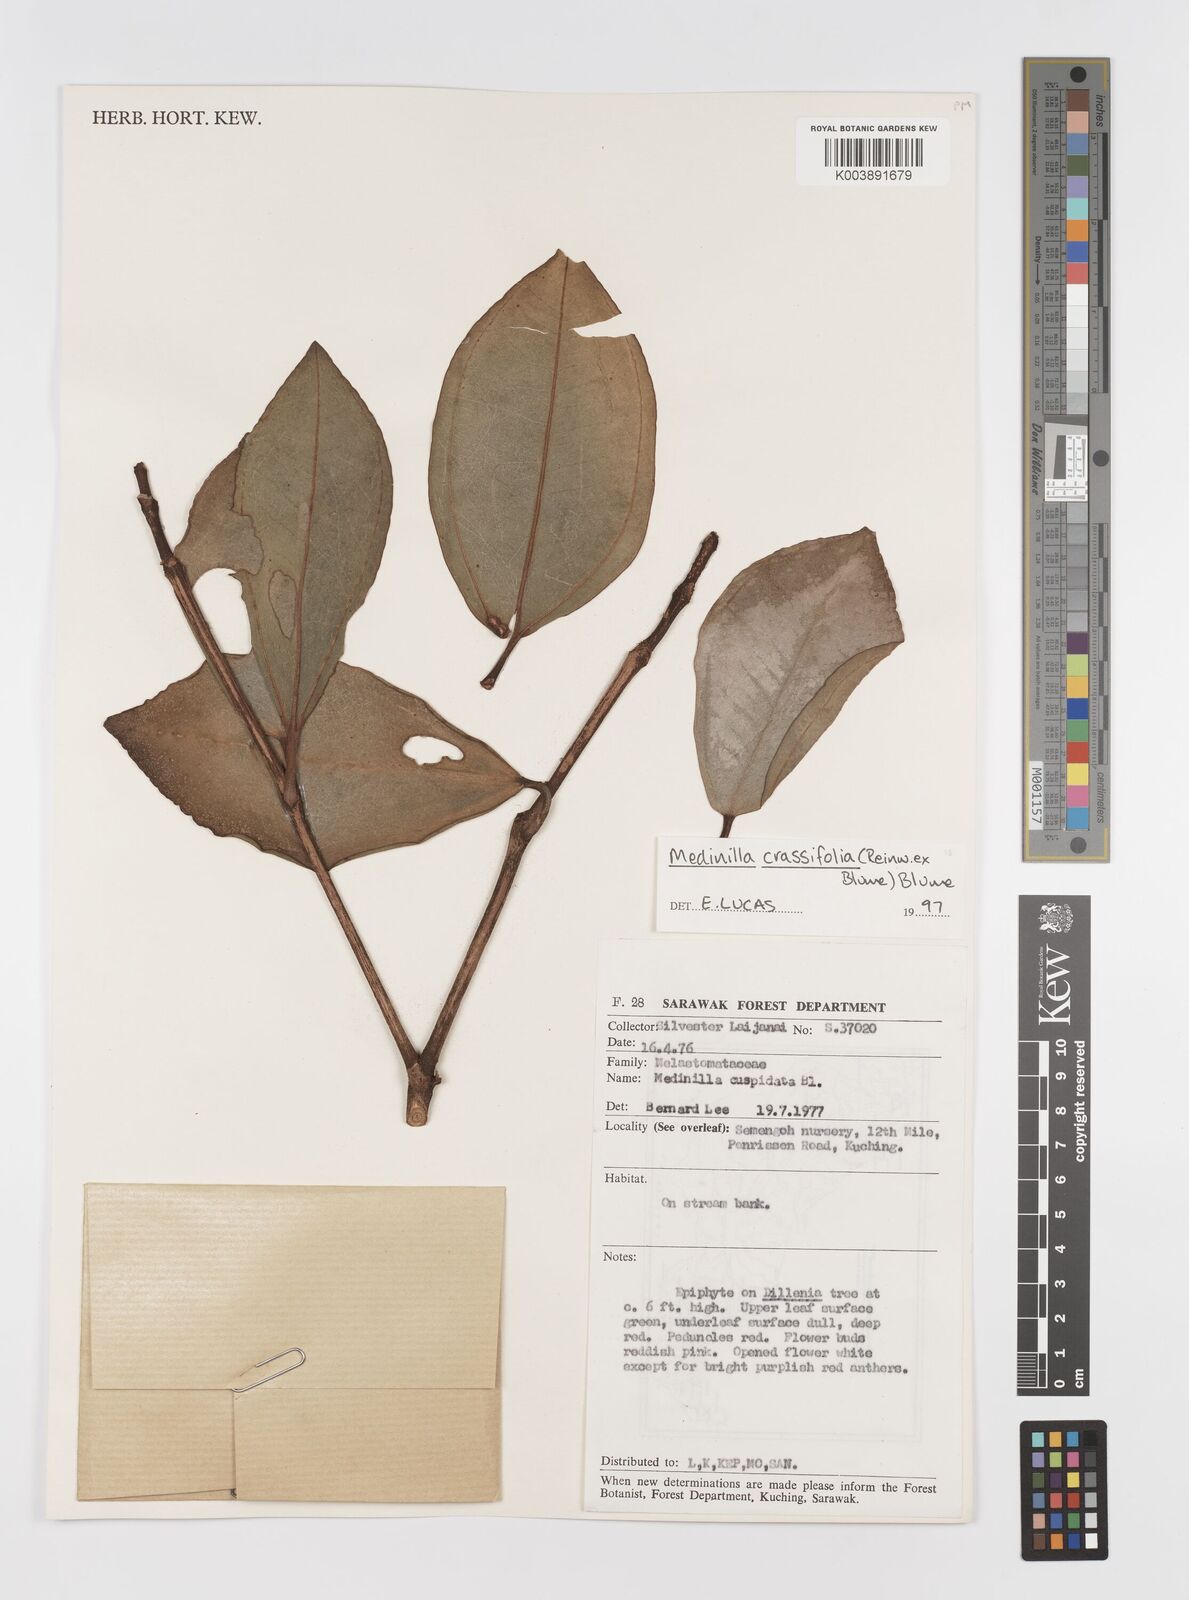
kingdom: Plantae
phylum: Tracheophyta
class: Magnoliopsida
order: Myrtales
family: Melastomataceae
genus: Medinilla
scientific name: Medinilla crassifolia
